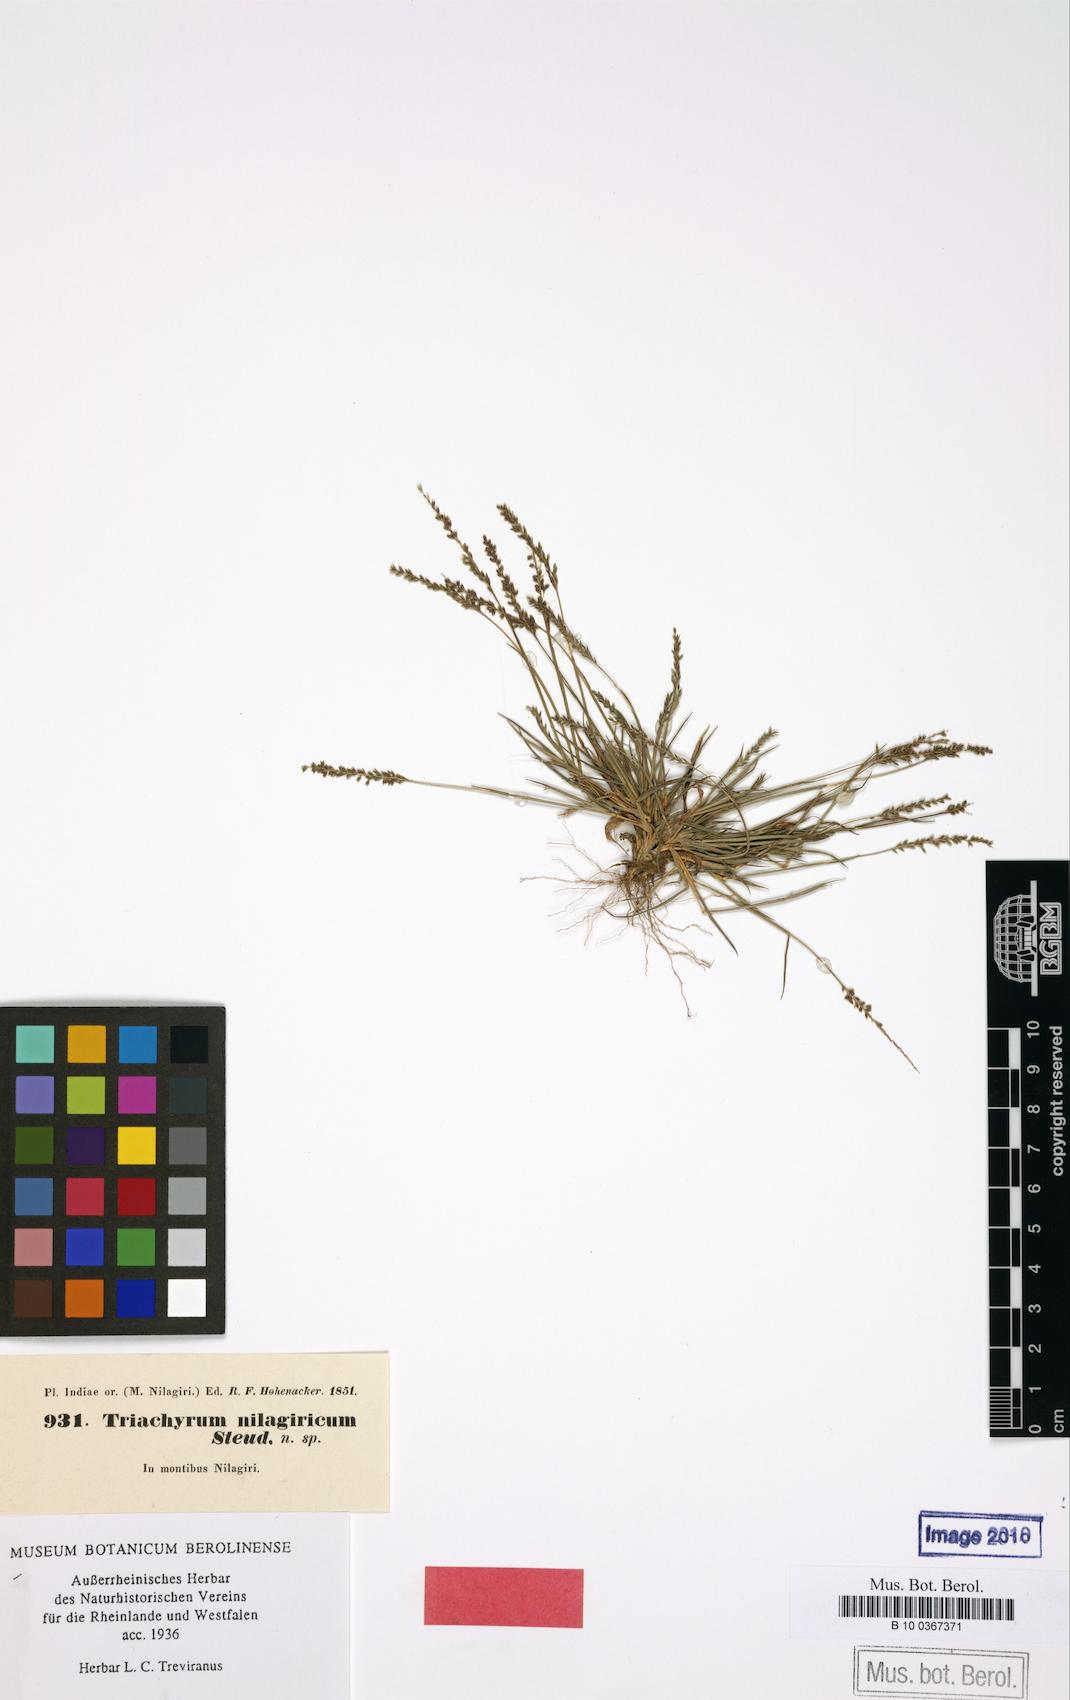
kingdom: Plantae
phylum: Tracheophyta
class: Liliopsida
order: Poales
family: Poaceae
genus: Sporobolus
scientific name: Sporobolus pilifer
